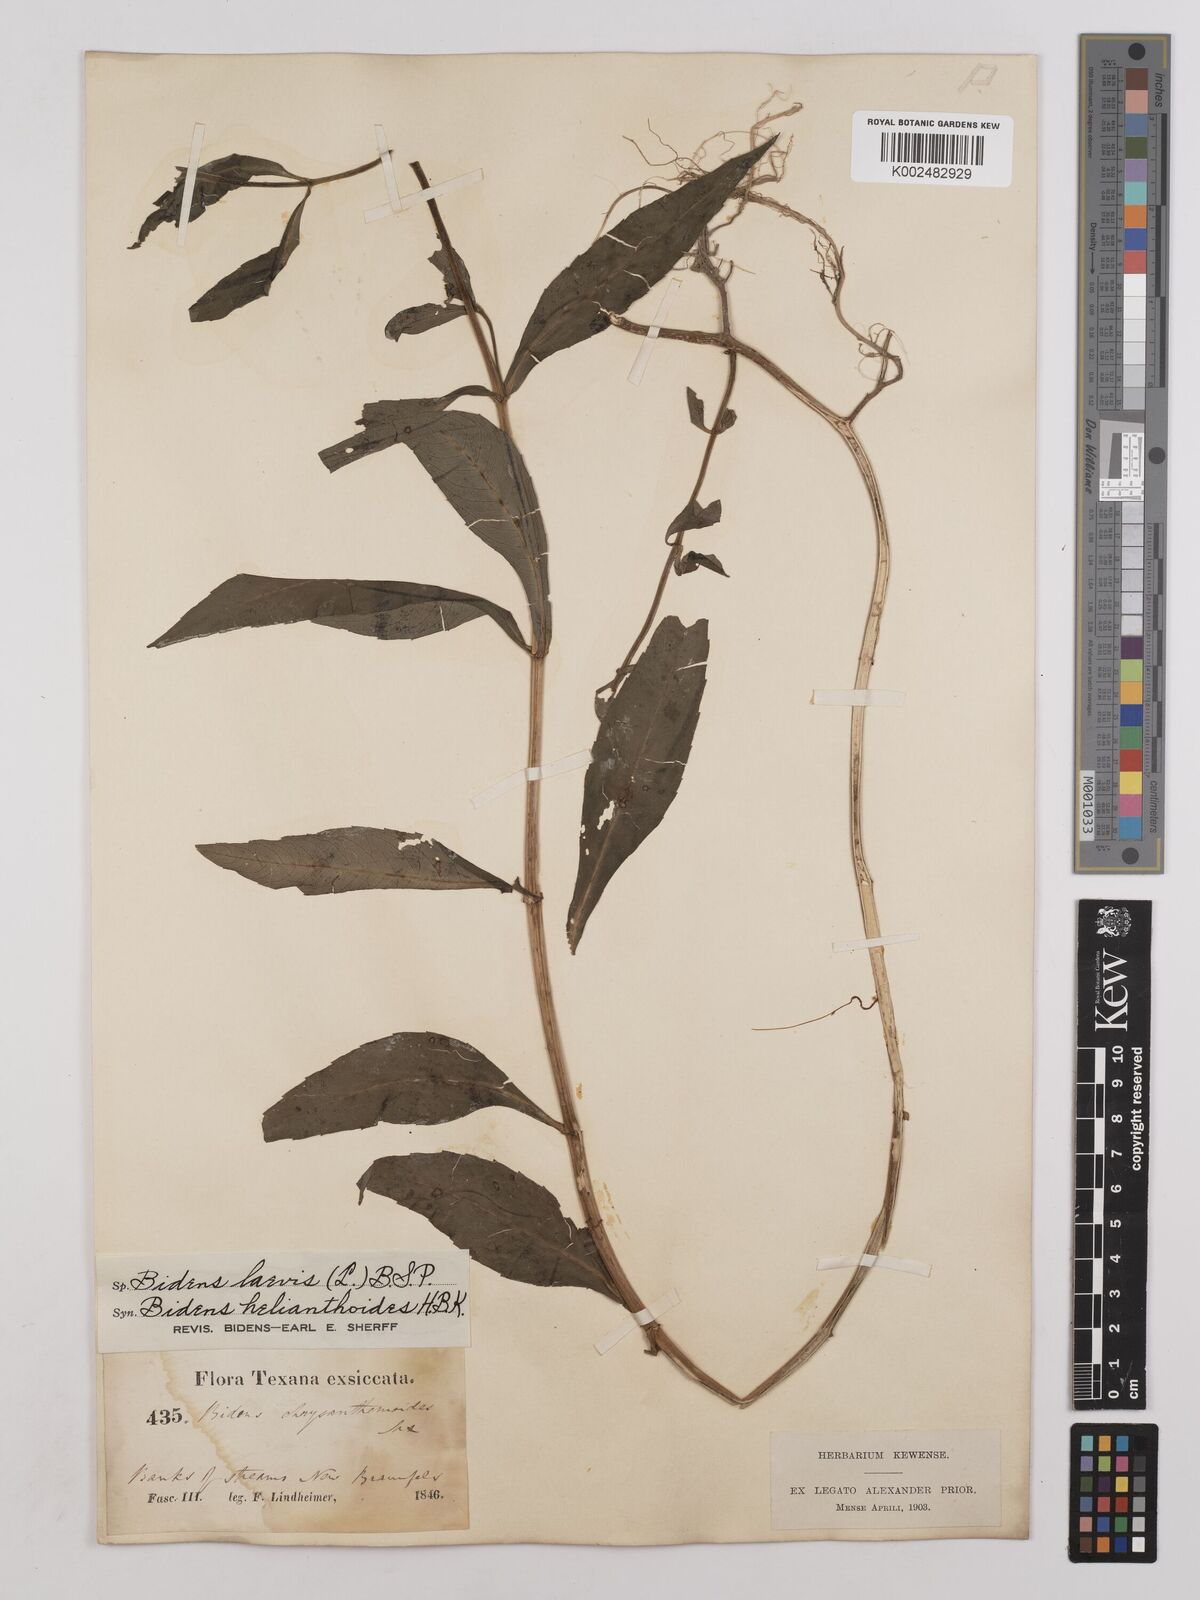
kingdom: Plantae
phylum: Tracheophyta
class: Magnoliopsida
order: Asterales
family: Asteraceae
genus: Bidens
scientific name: Bidens
